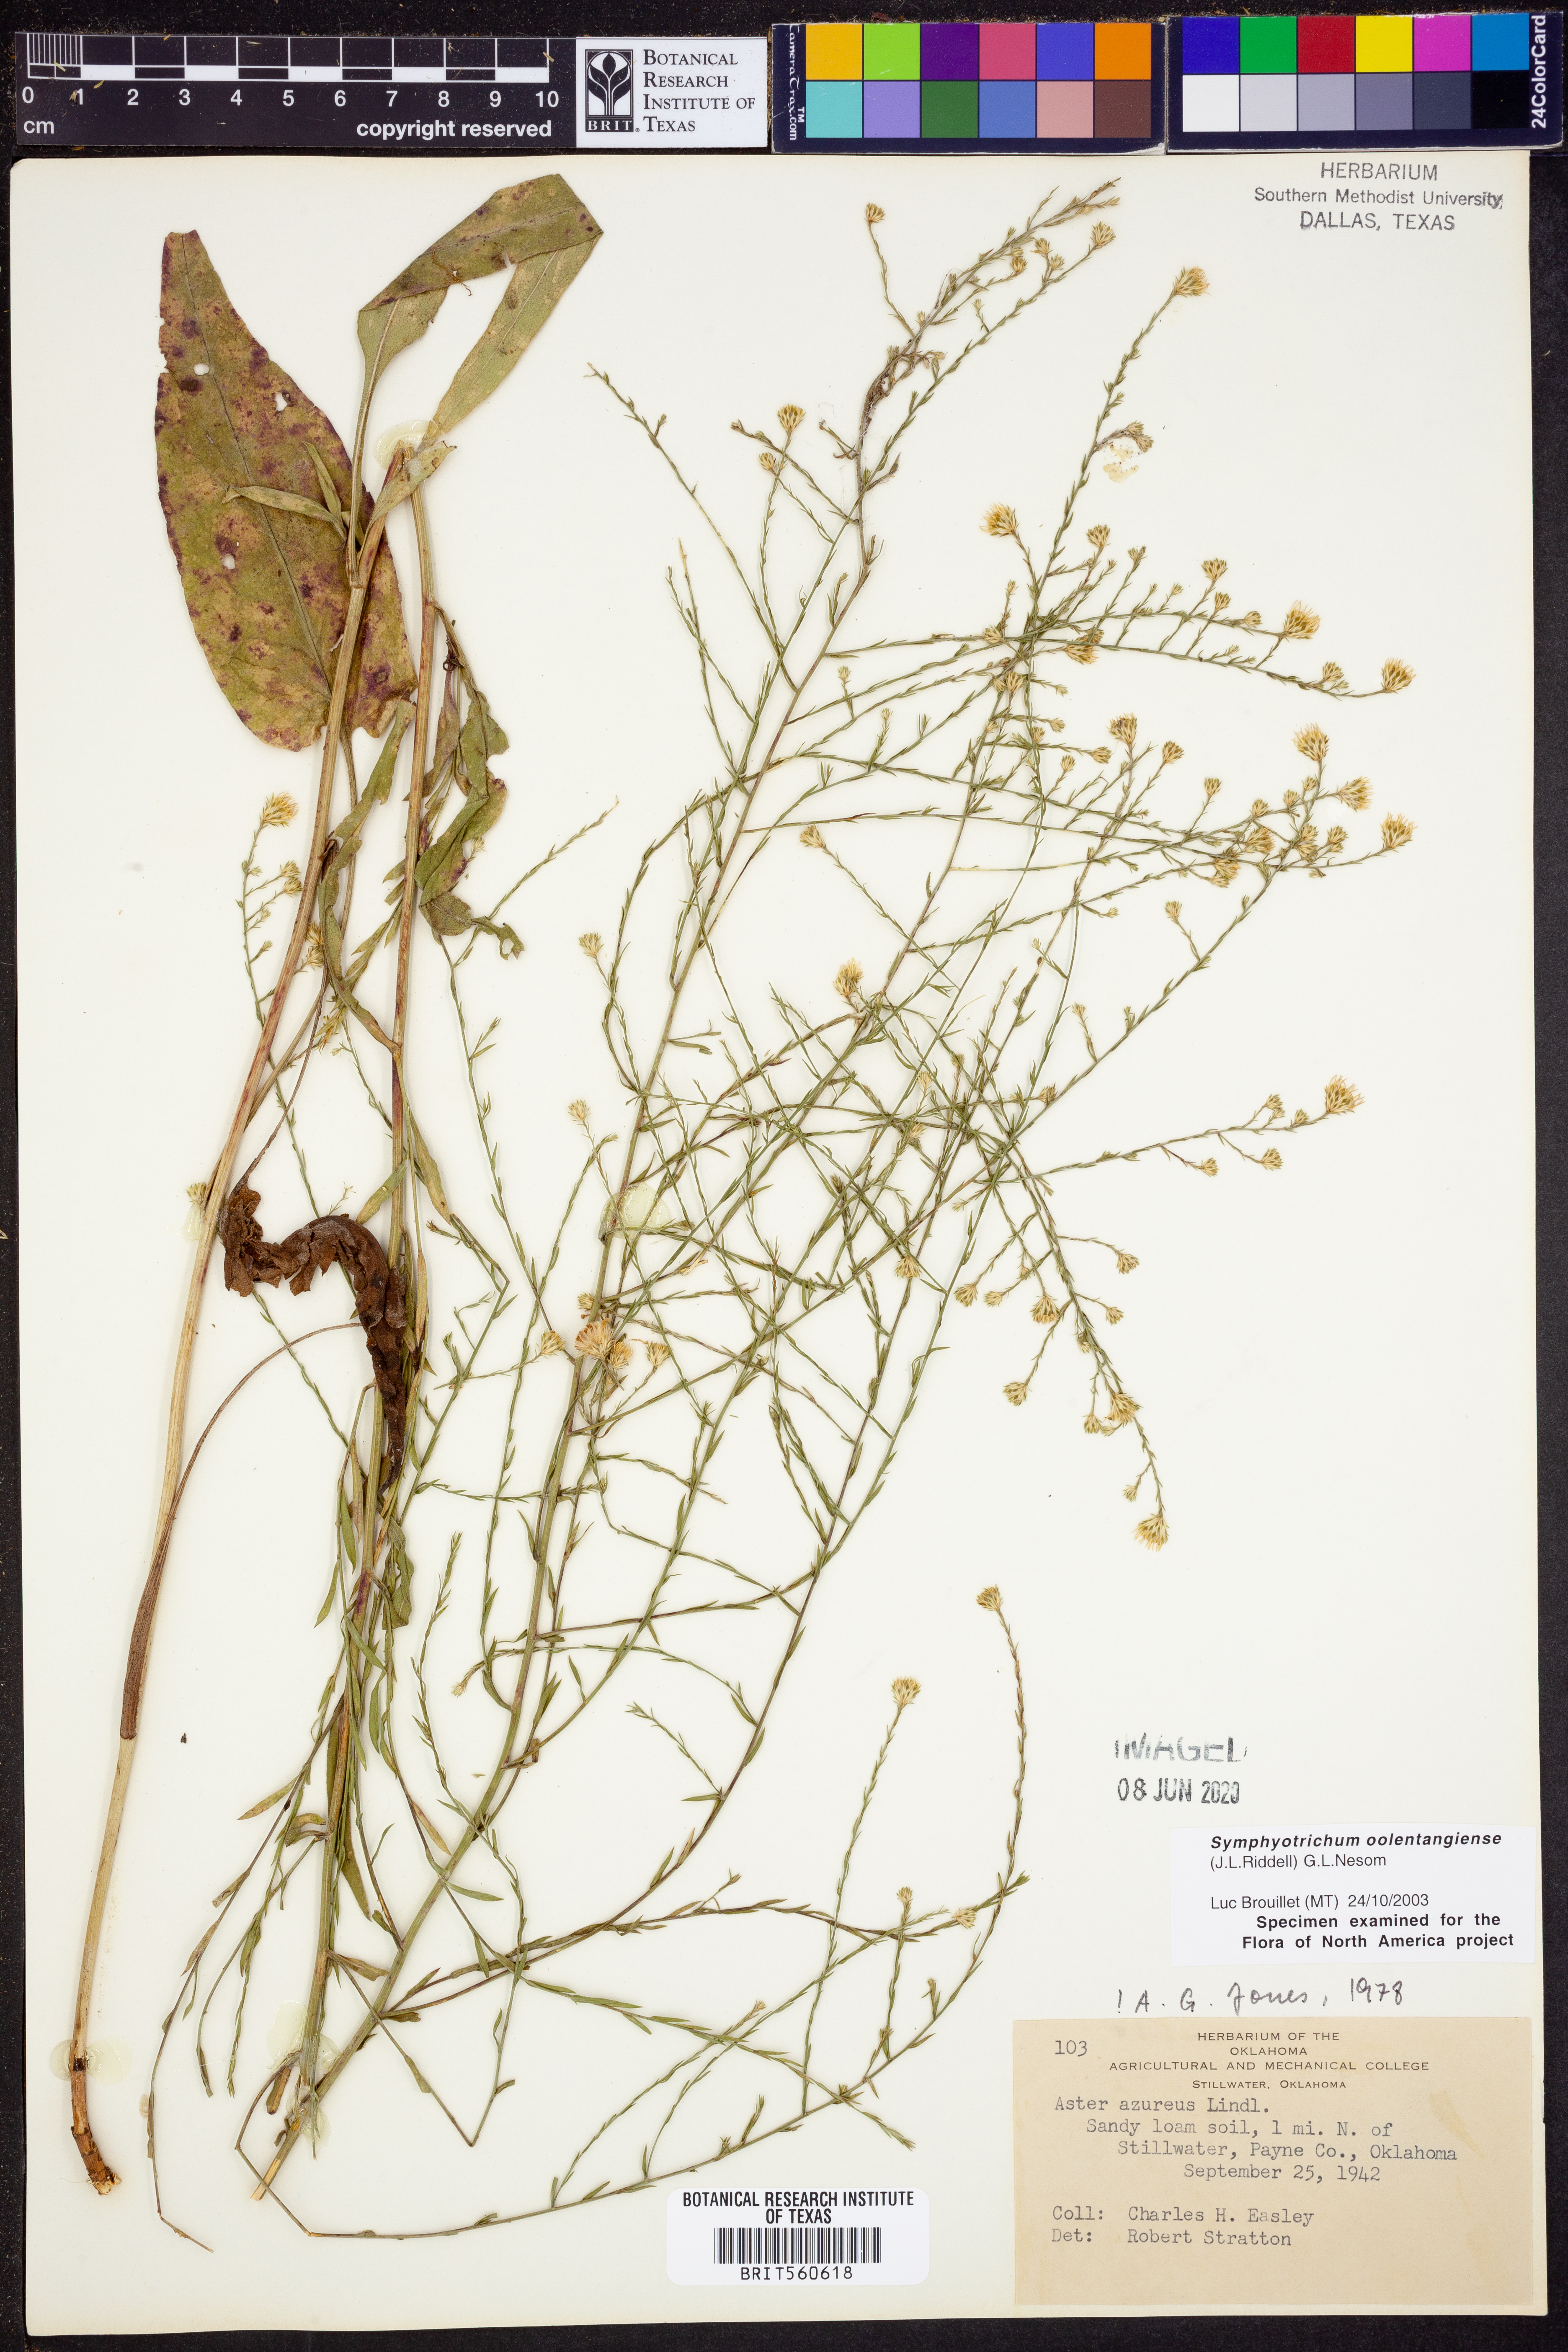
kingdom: Plantae
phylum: Tracheophyta
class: Magnoliopsida
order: Asterales
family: Asteraceae
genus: Symphyotrichum
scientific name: Symphyotrichum oolentangiense
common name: Azure aster
